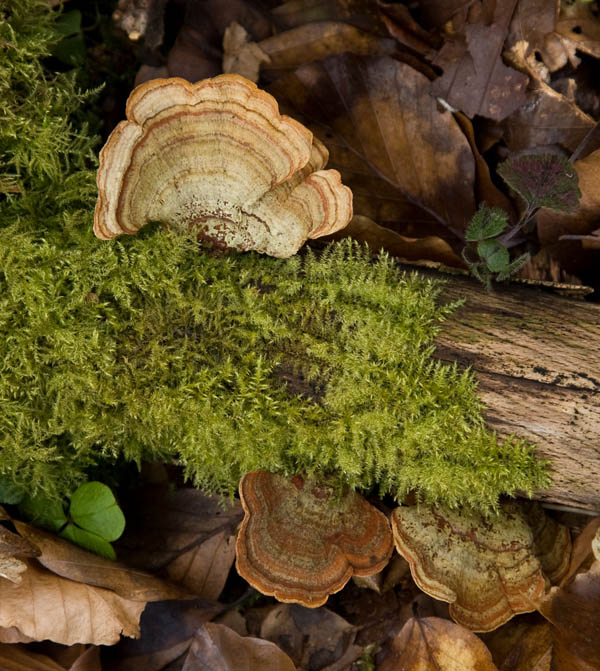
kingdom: Fungi
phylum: Basidiomycota
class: Agaricomycetes
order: Russulales
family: Stereaceae
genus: Stereum
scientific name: Stereum subtomentosum
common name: smuk lædersvamp
